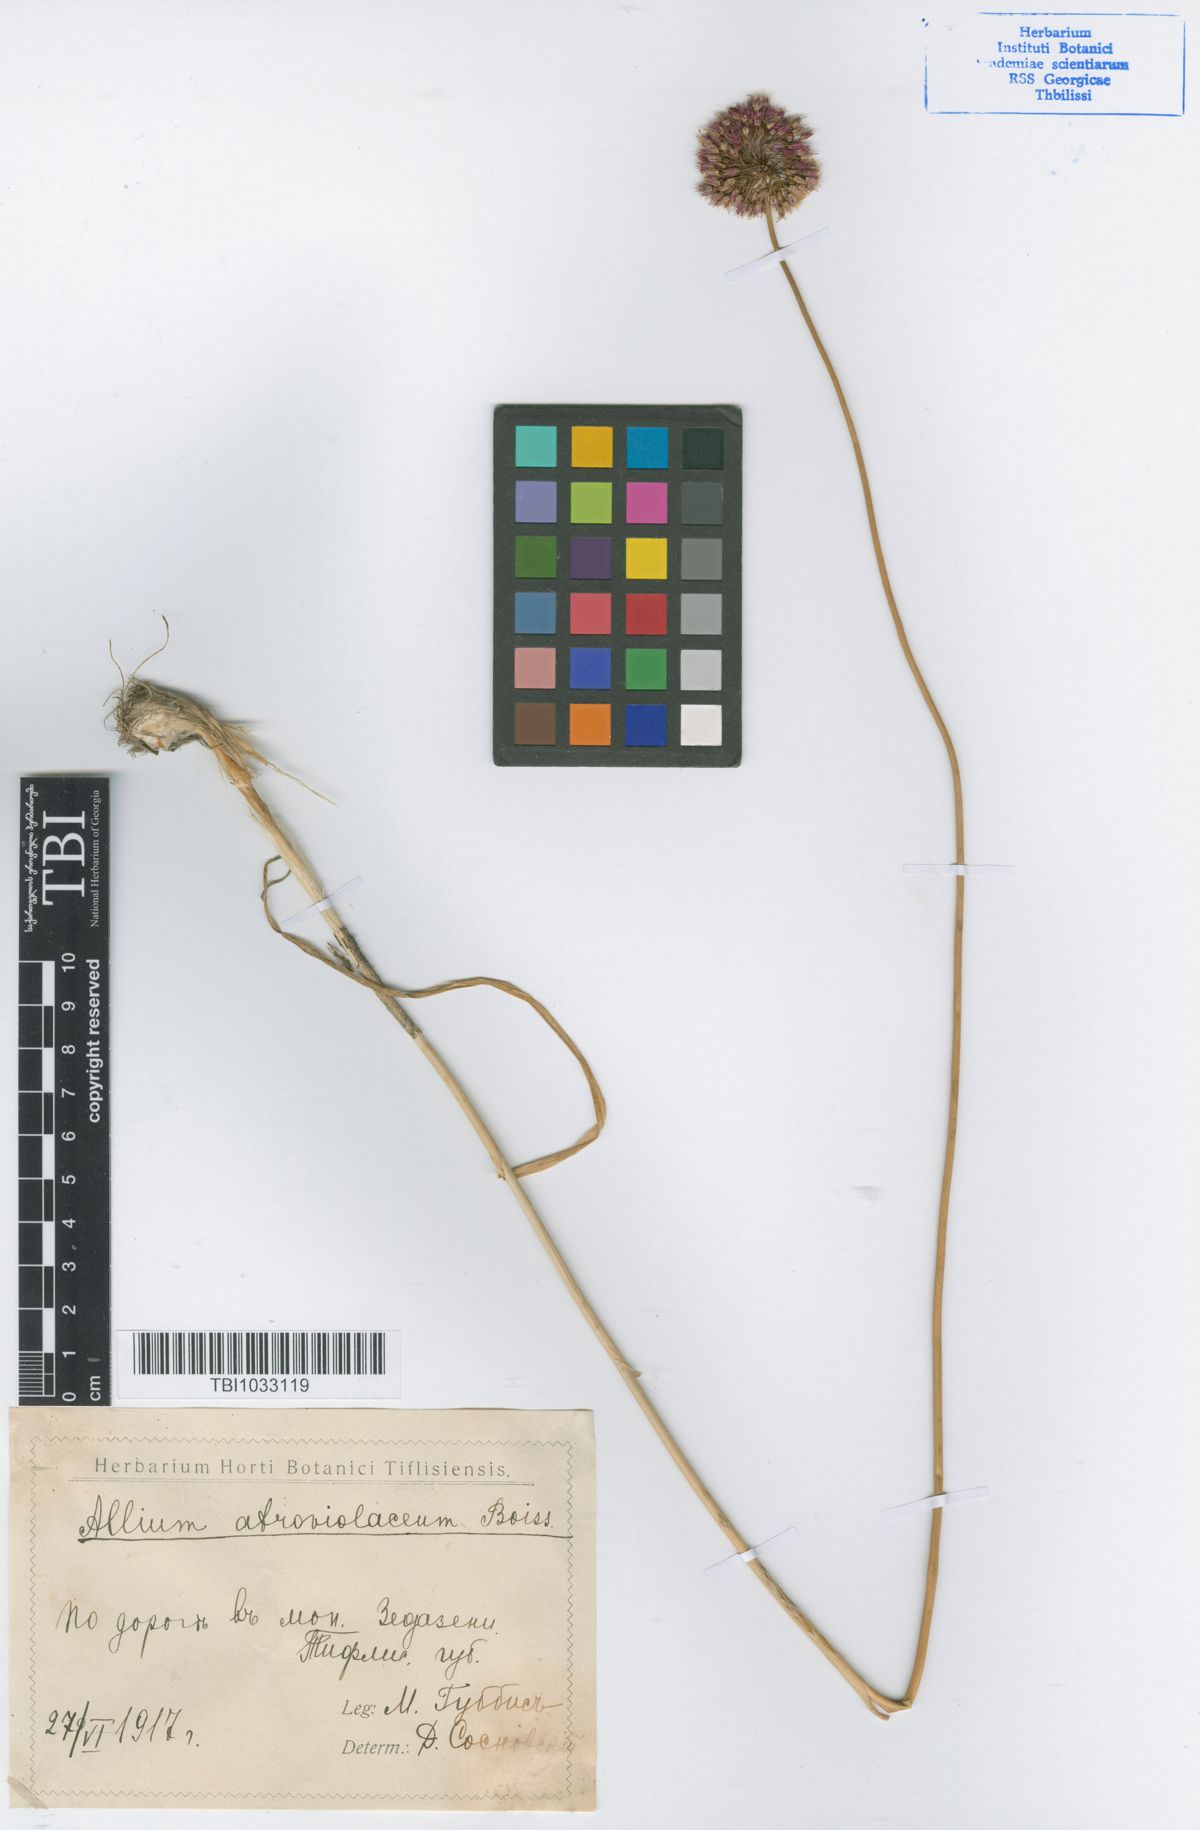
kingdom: Plantae
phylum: Tracheophyta
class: Liliopsida
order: Asparagales
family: Amaryllidaceae
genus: Allium
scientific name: Allium atroviolaceum
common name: Broadleaf wild leek
